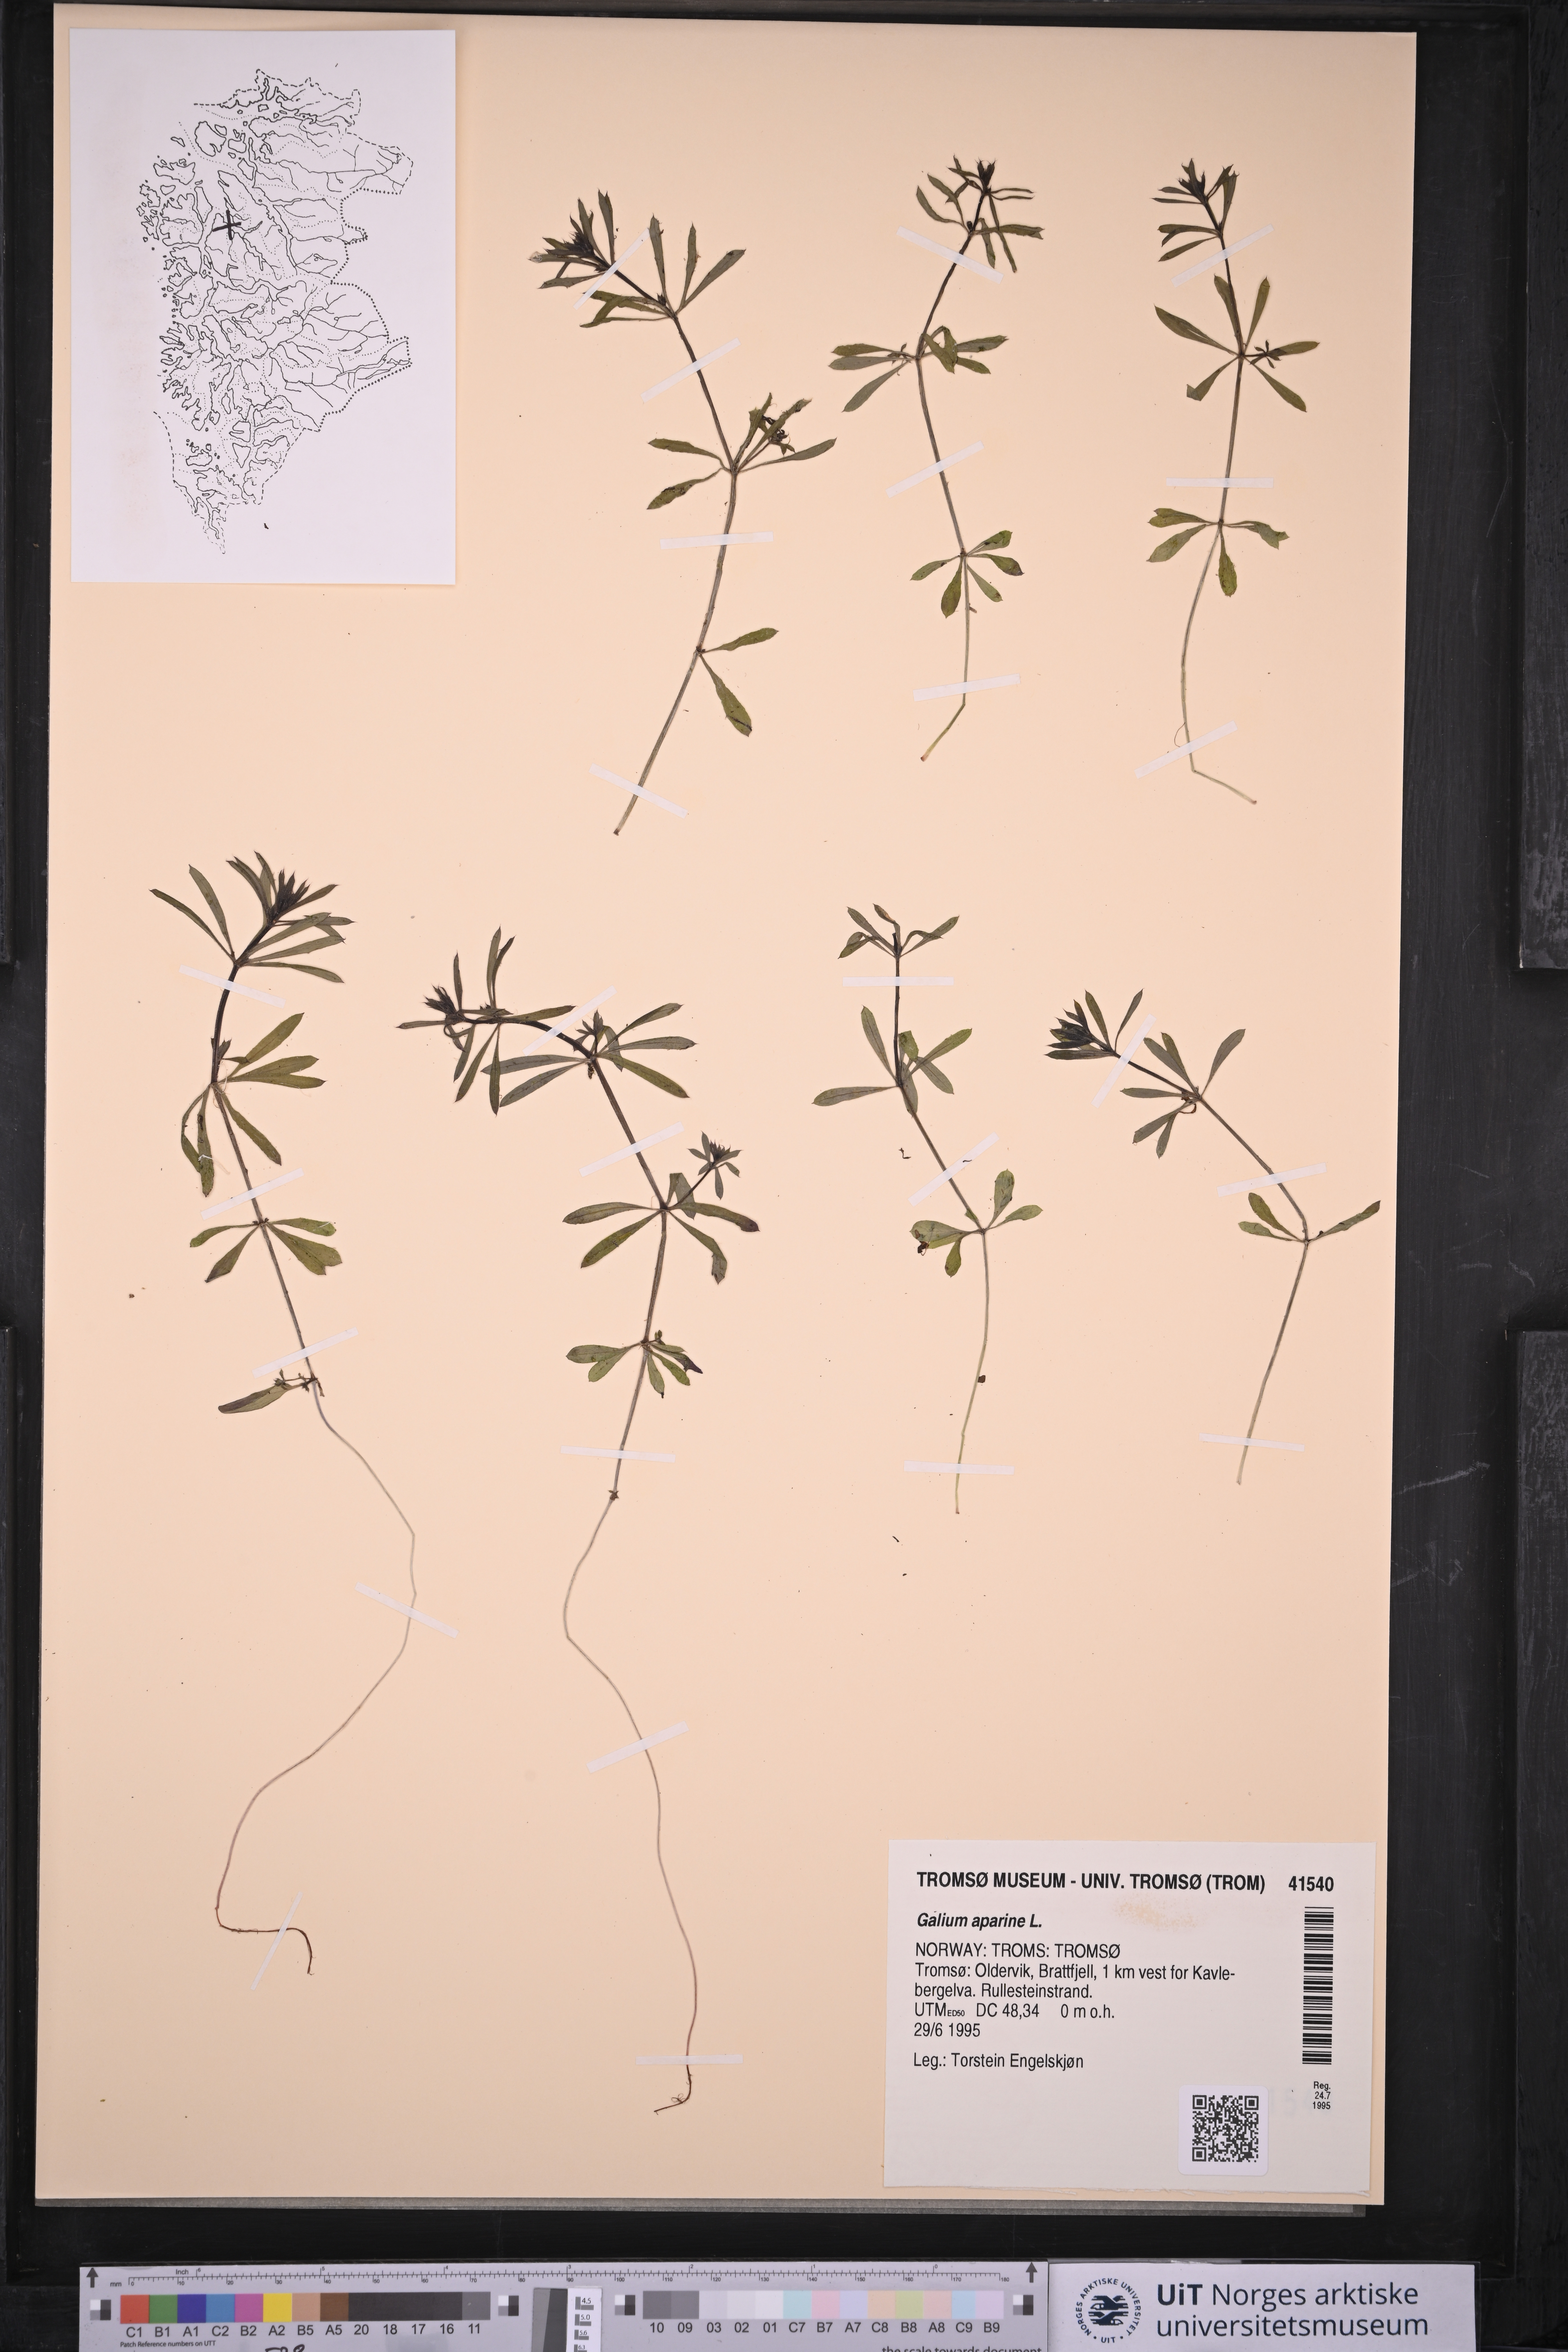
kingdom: Plantae
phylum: Tracheophyta
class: Magnoliopsida
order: Gentianales
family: Rubiaceae
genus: Galium
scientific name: Galium aparine
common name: Cleavers
